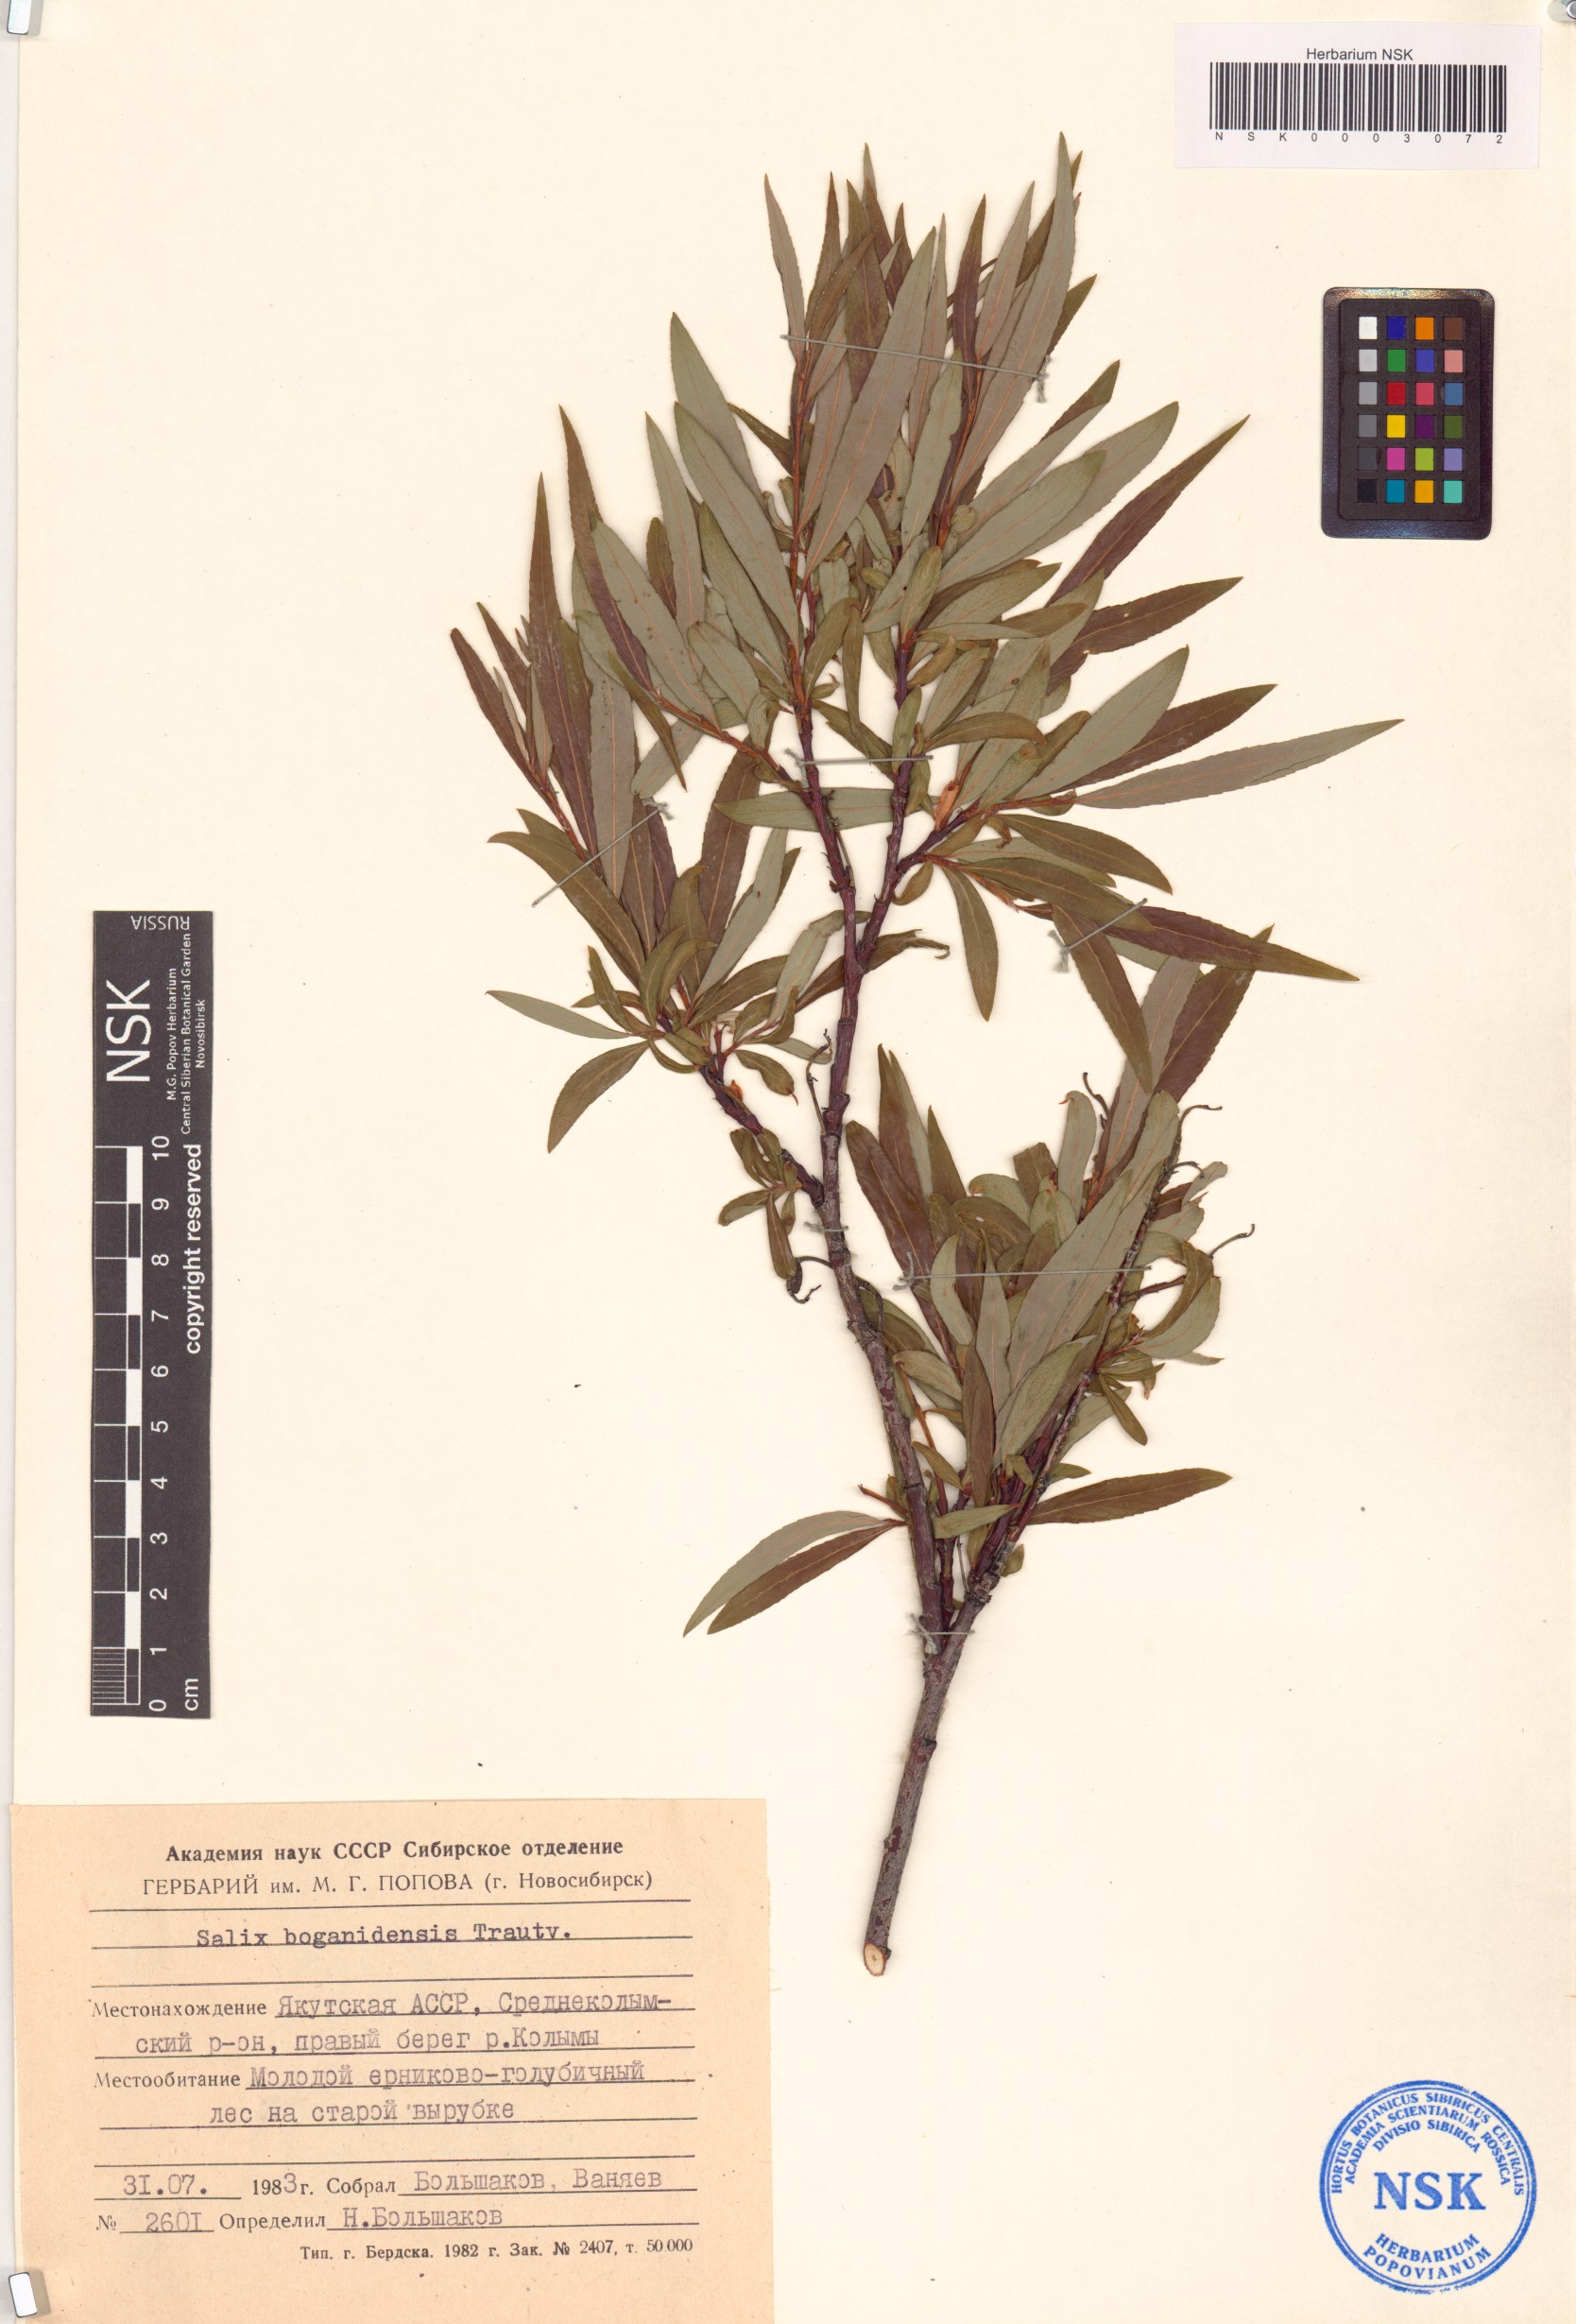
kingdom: Plantae
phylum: Tracheophyta
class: Magnoliopsida
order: Malpighiales
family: Salicaceae
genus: Salix
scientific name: Salix boganidensis
